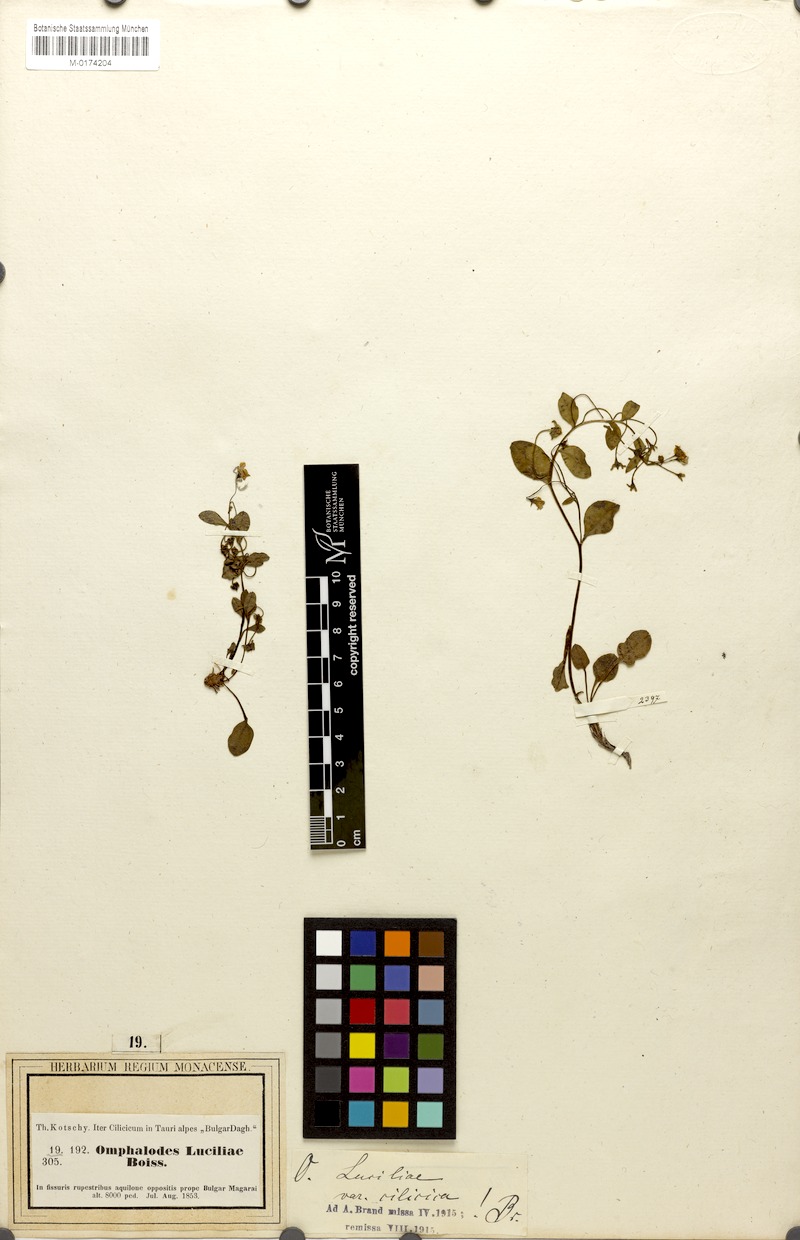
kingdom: Plantae
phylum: Tracheophyta
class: Magnoliopsida
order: Boraginales
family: Boraginaceae
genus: Omphalodes
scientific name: Omphalodes luciliae
